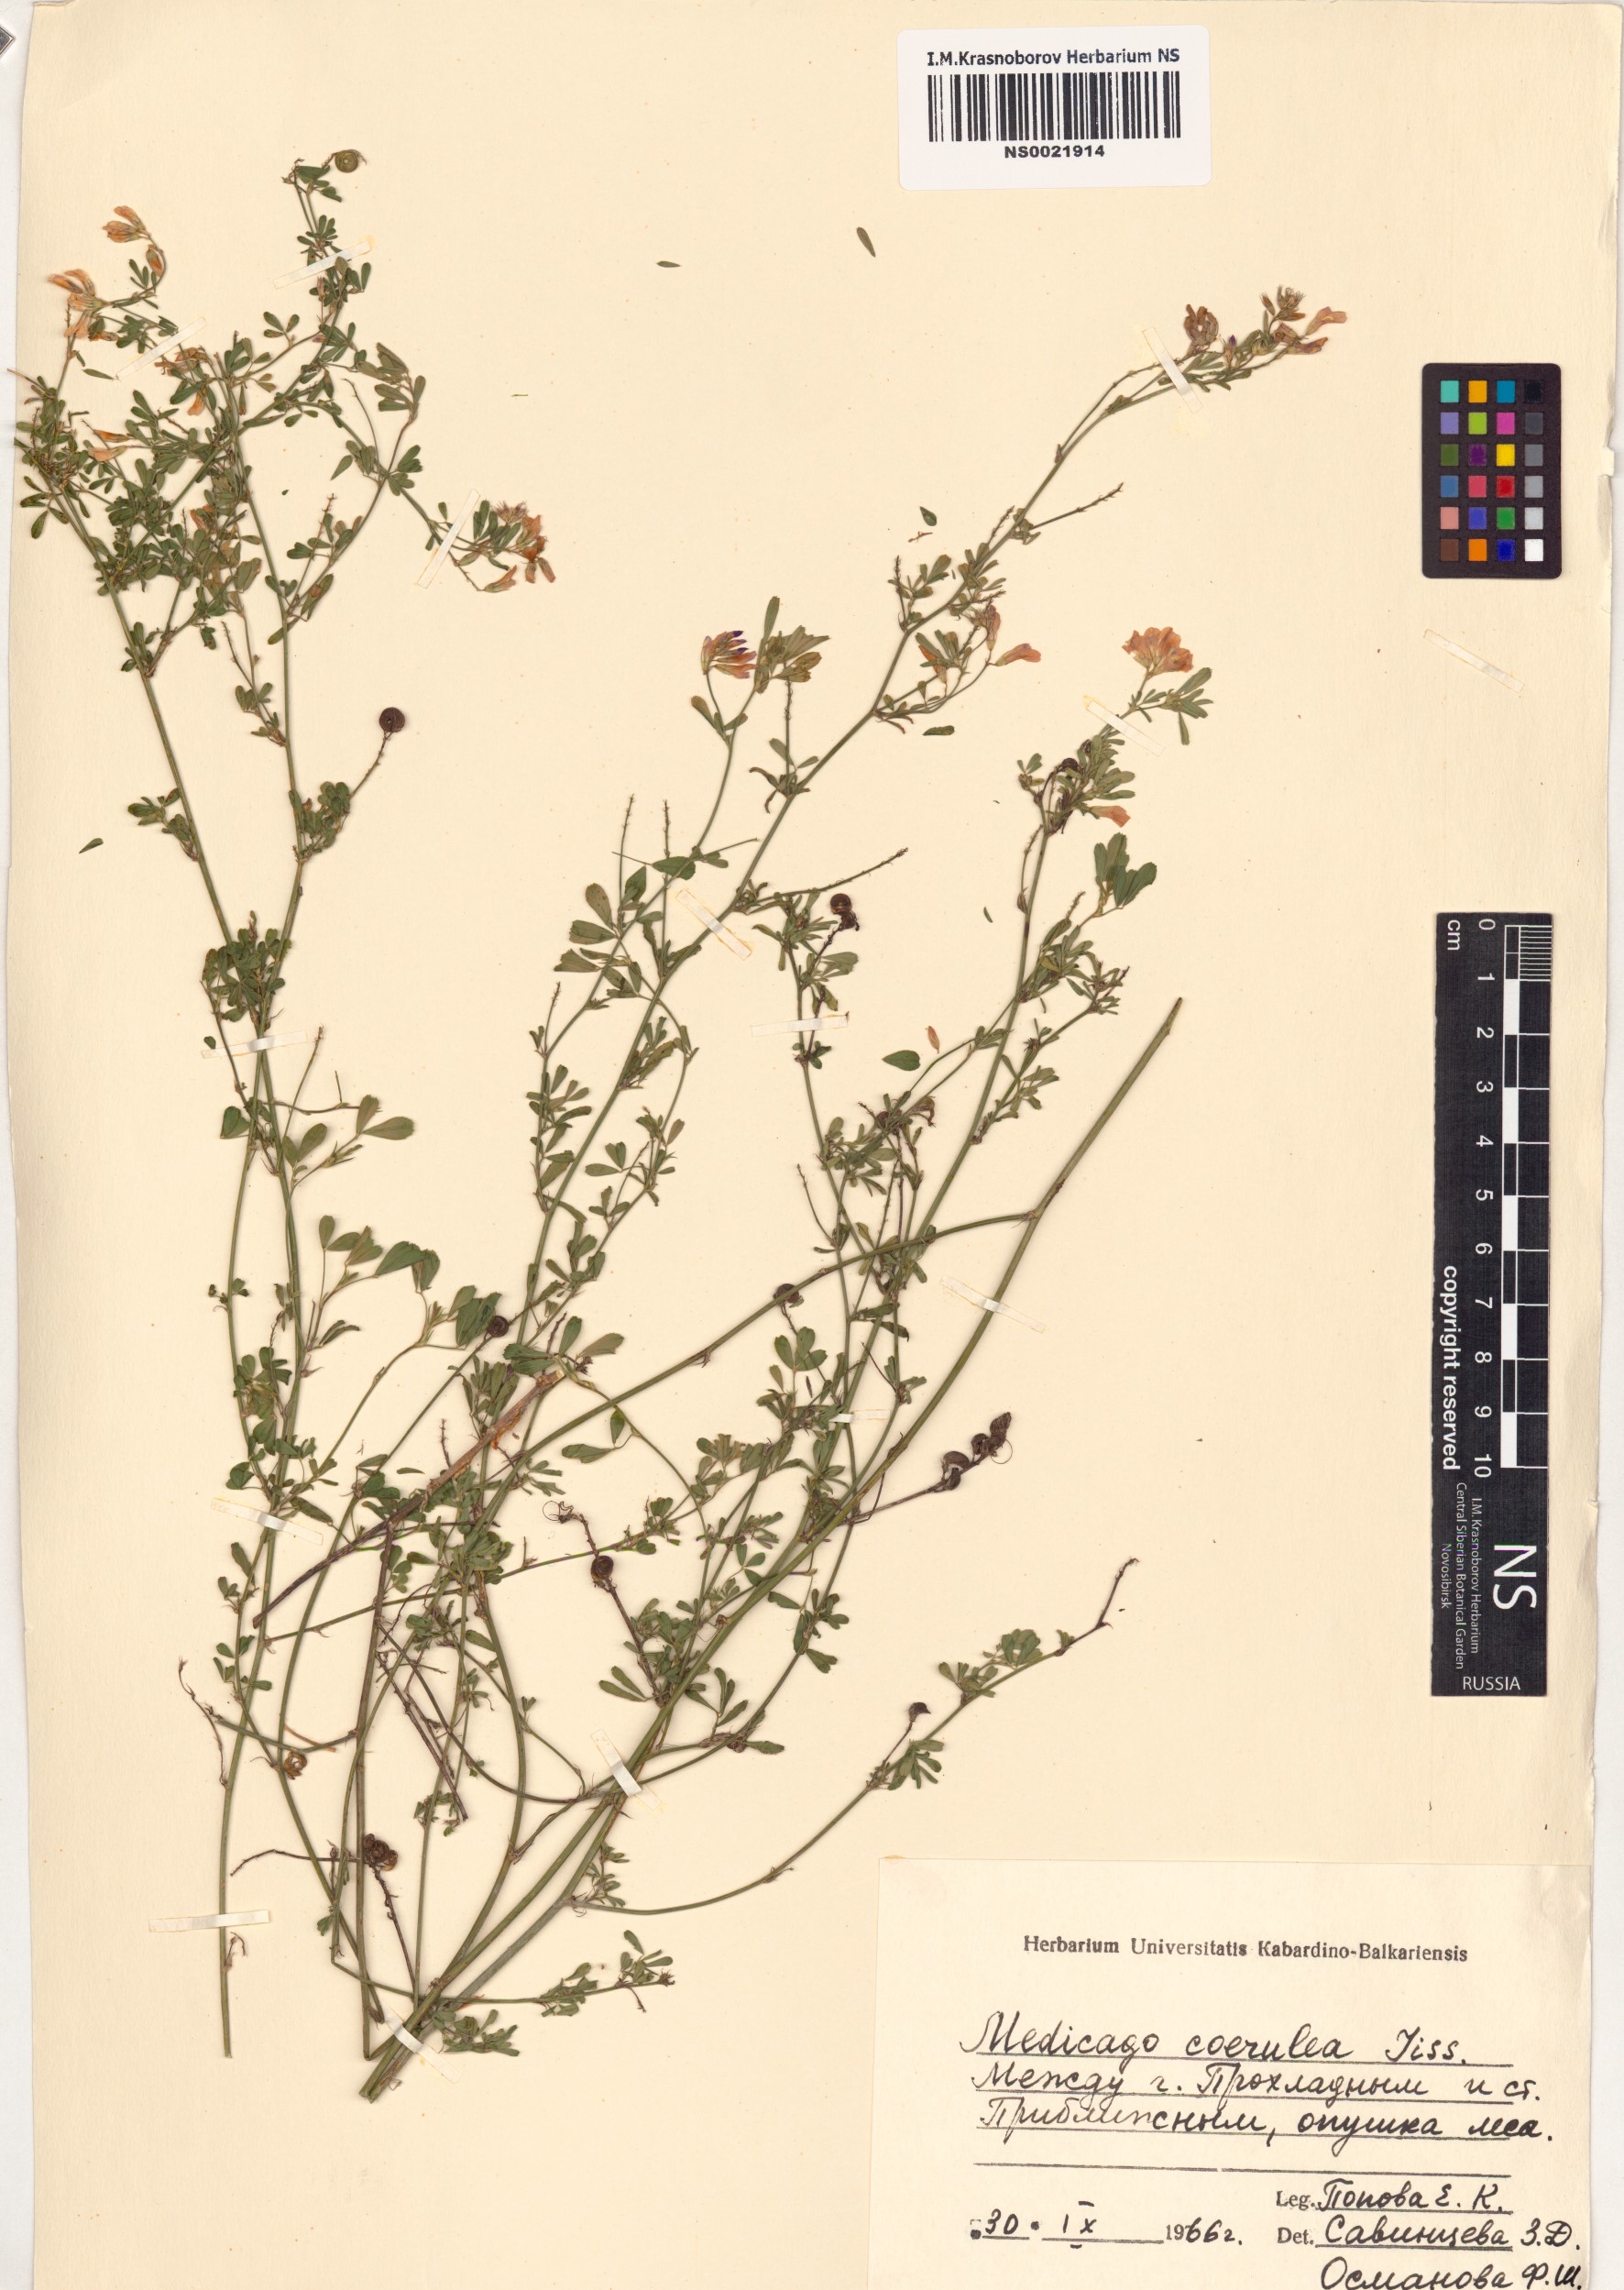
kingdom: Plantae
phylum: Tracheophyta
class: Magnoliopsida
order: Fabales
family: Fabaceae
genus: Medicago
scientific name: Medicago sativa
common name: Alfalfa
